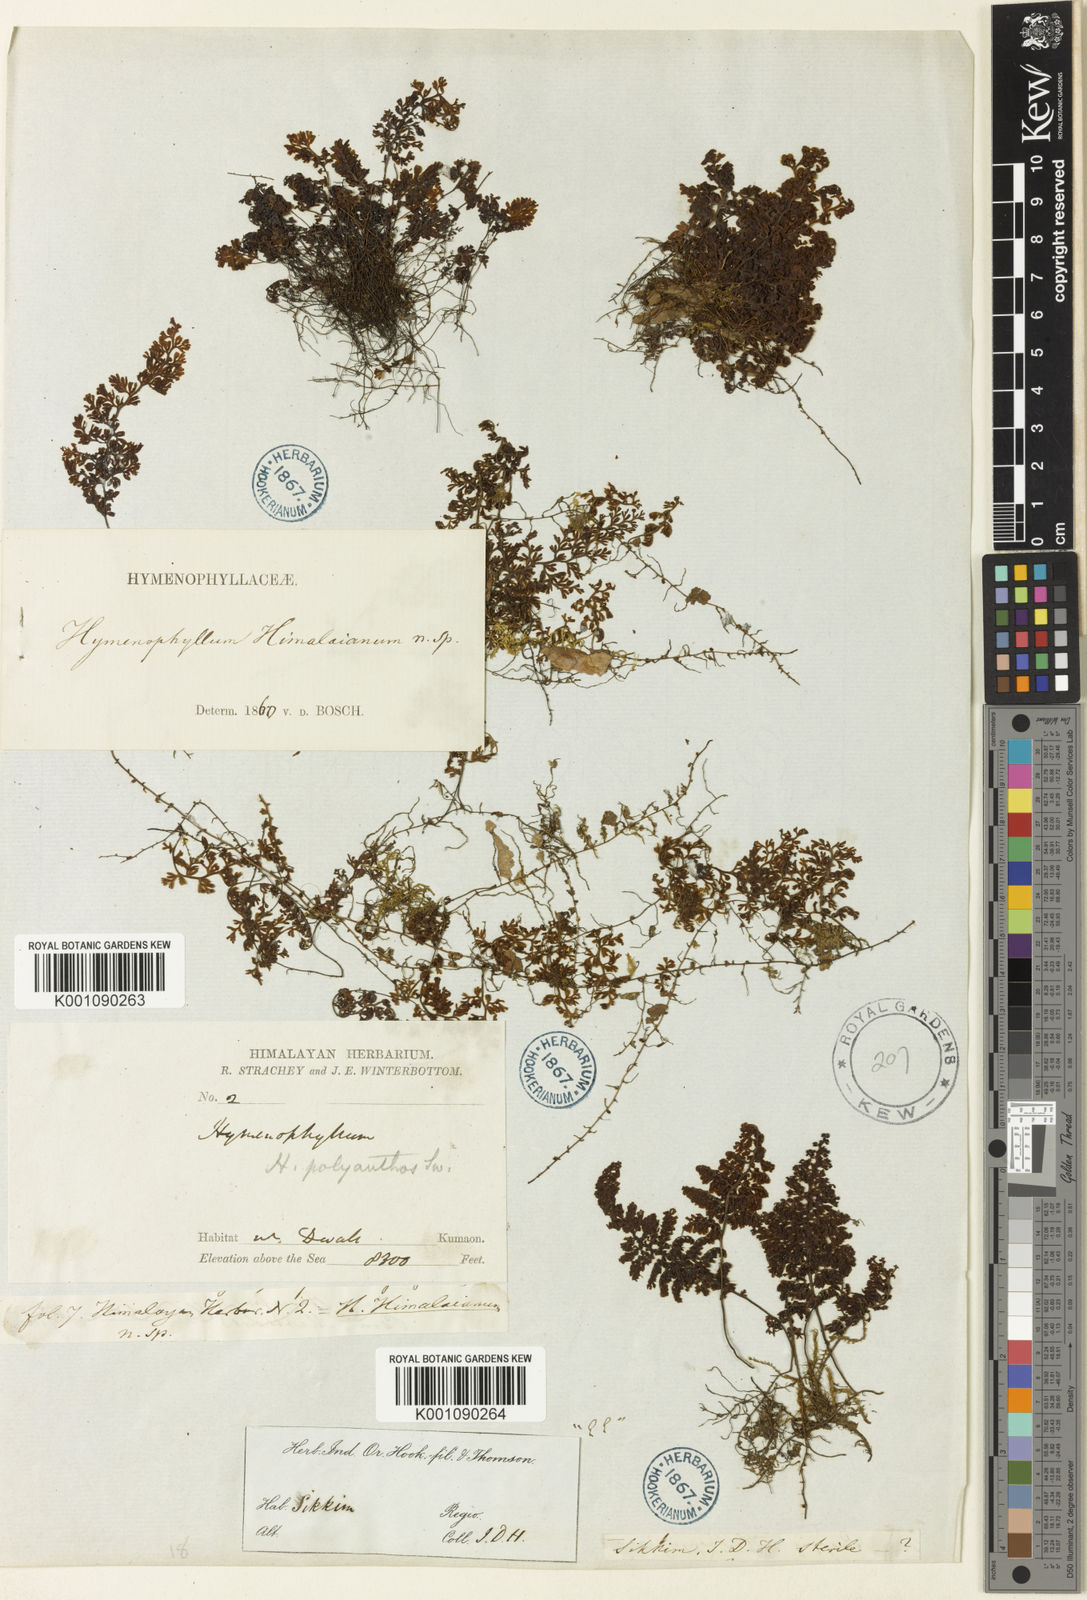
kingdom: Plantae
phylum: Tracheophyta
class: Polypodiopsida
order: Hymenophyllales
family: Hymenophyllaceae
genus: Hymenophyllum
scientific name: Hymenophyllum polyanthos
